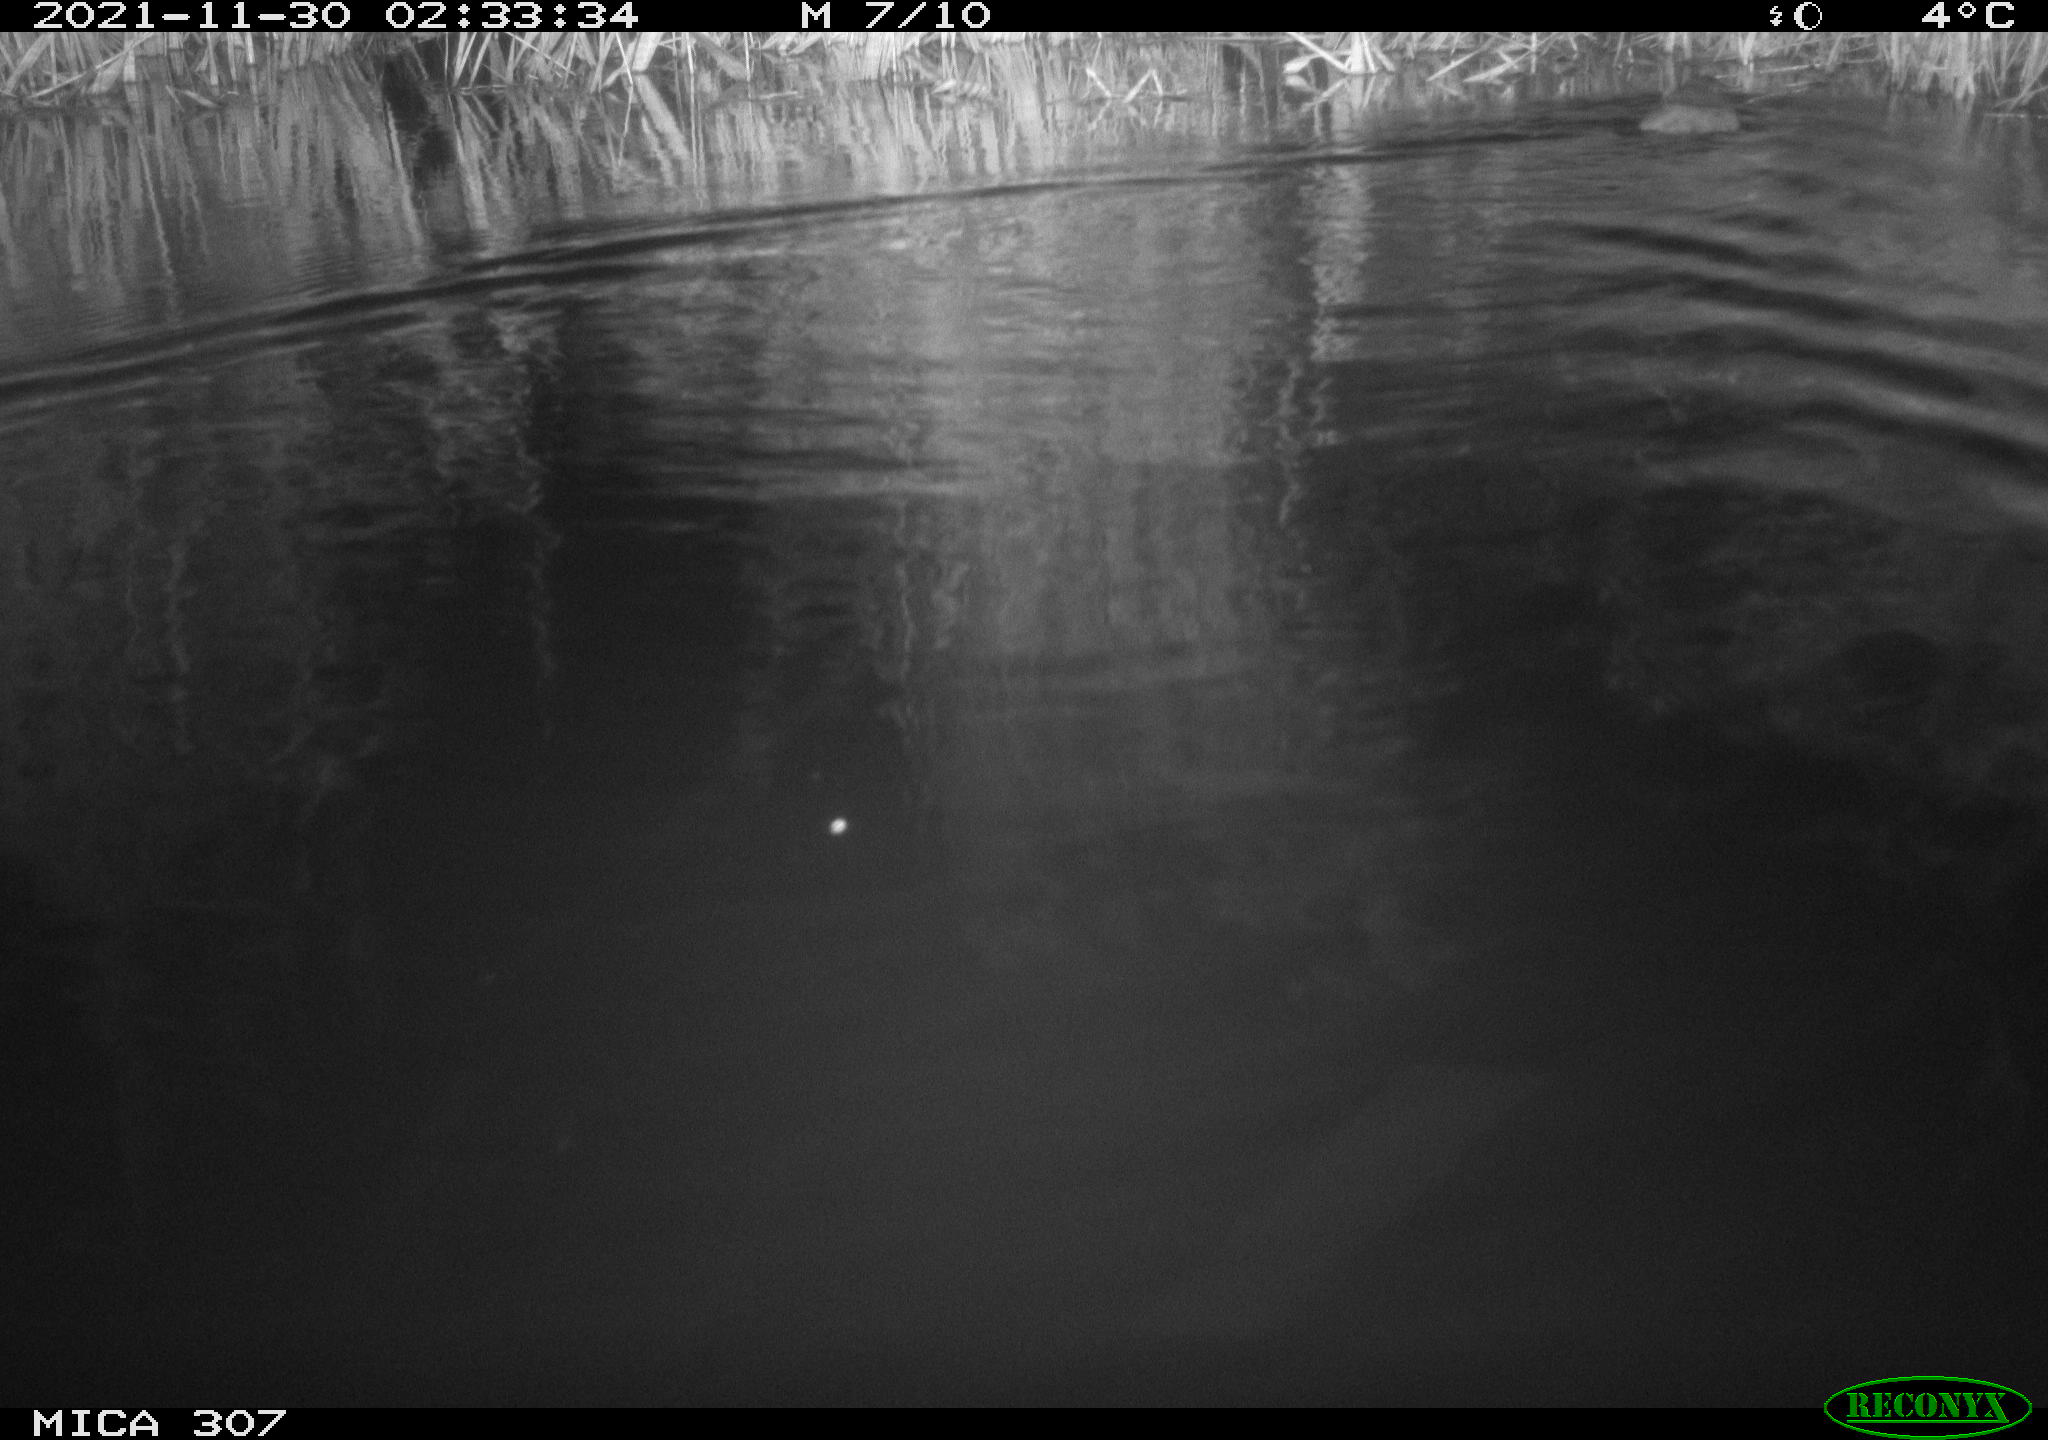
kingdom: Animalia
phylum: Chordata
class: Mammalia
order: Rodentia
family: Muridae
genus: Rattus
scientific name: Rattus norvegicus
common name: Brown rat
